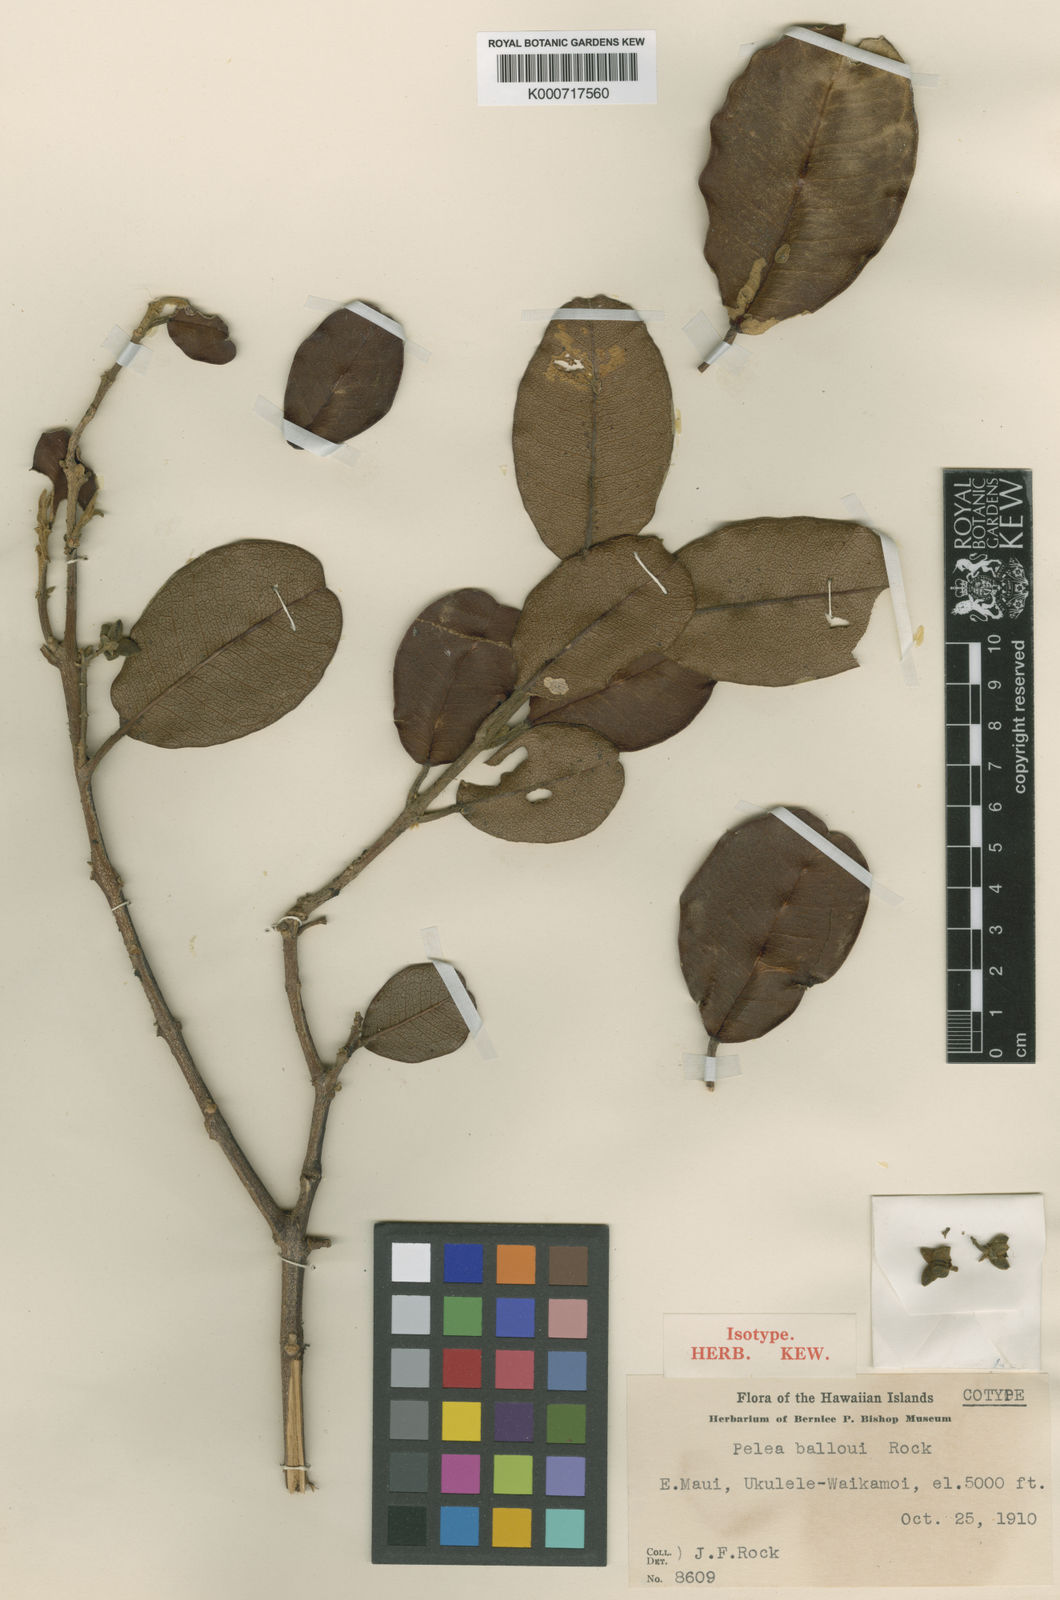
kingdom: Plantae
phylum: Tracheophyta
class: Magnoliopsida
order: Sapindales
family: Rutaceae
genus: Melicope
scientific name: Melicope balloui
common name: Rock pelea
